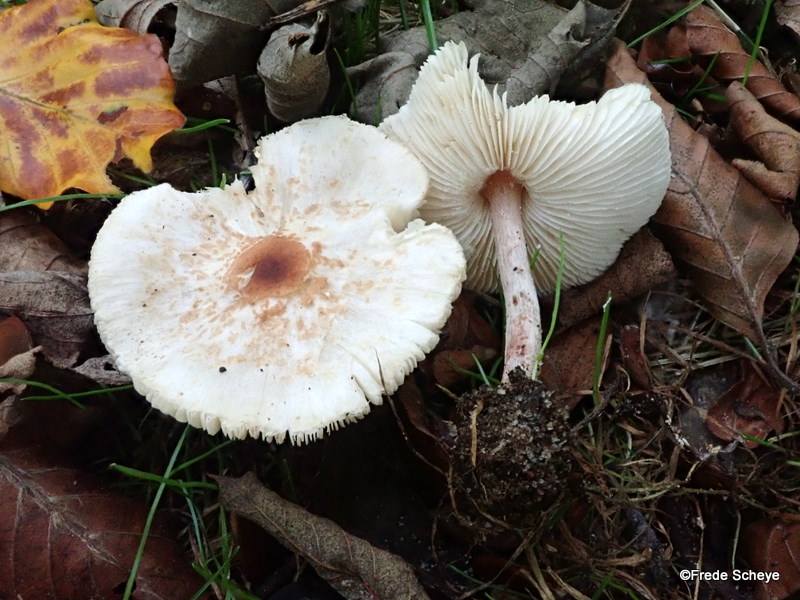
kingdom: Fungi
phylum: Basidiomycota
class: Agaricomycetes
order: Agaricales
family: Agaricaceae
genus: Lepiota
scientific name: Lepiota cristata
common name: stinkende parasolhat
